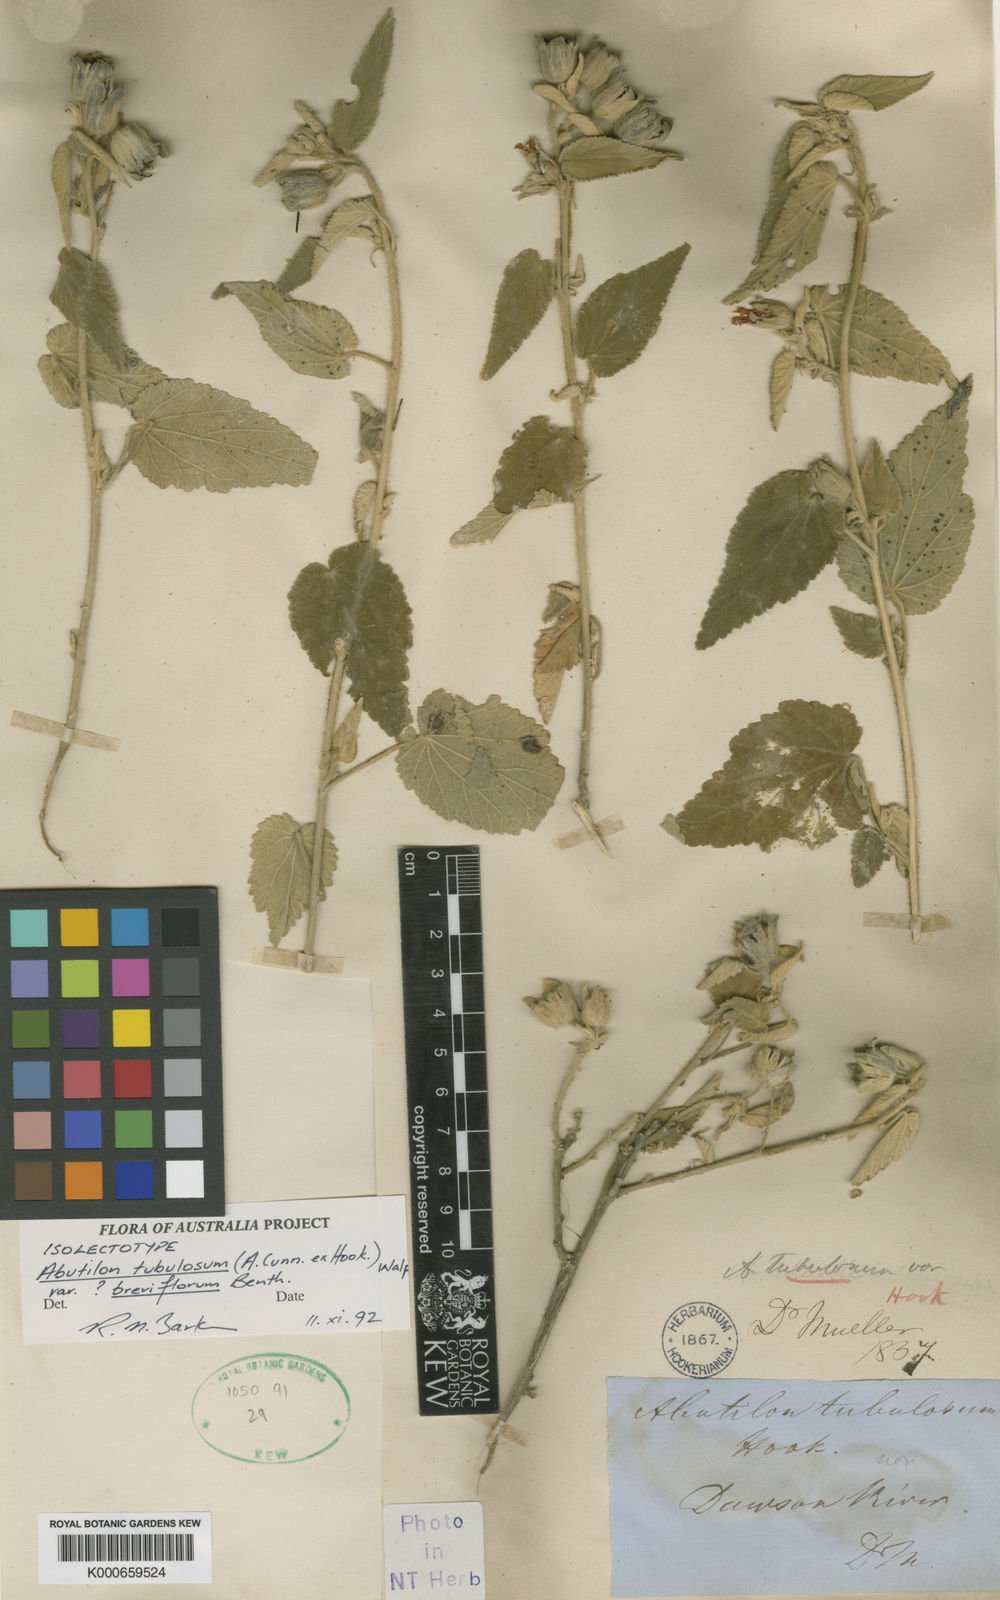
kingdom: Plantae
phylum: Tracheophyta
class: Magnoliopsida
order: Malvales
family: Malvaceae
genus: Abutilon
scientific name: Abutilon tubulosum
